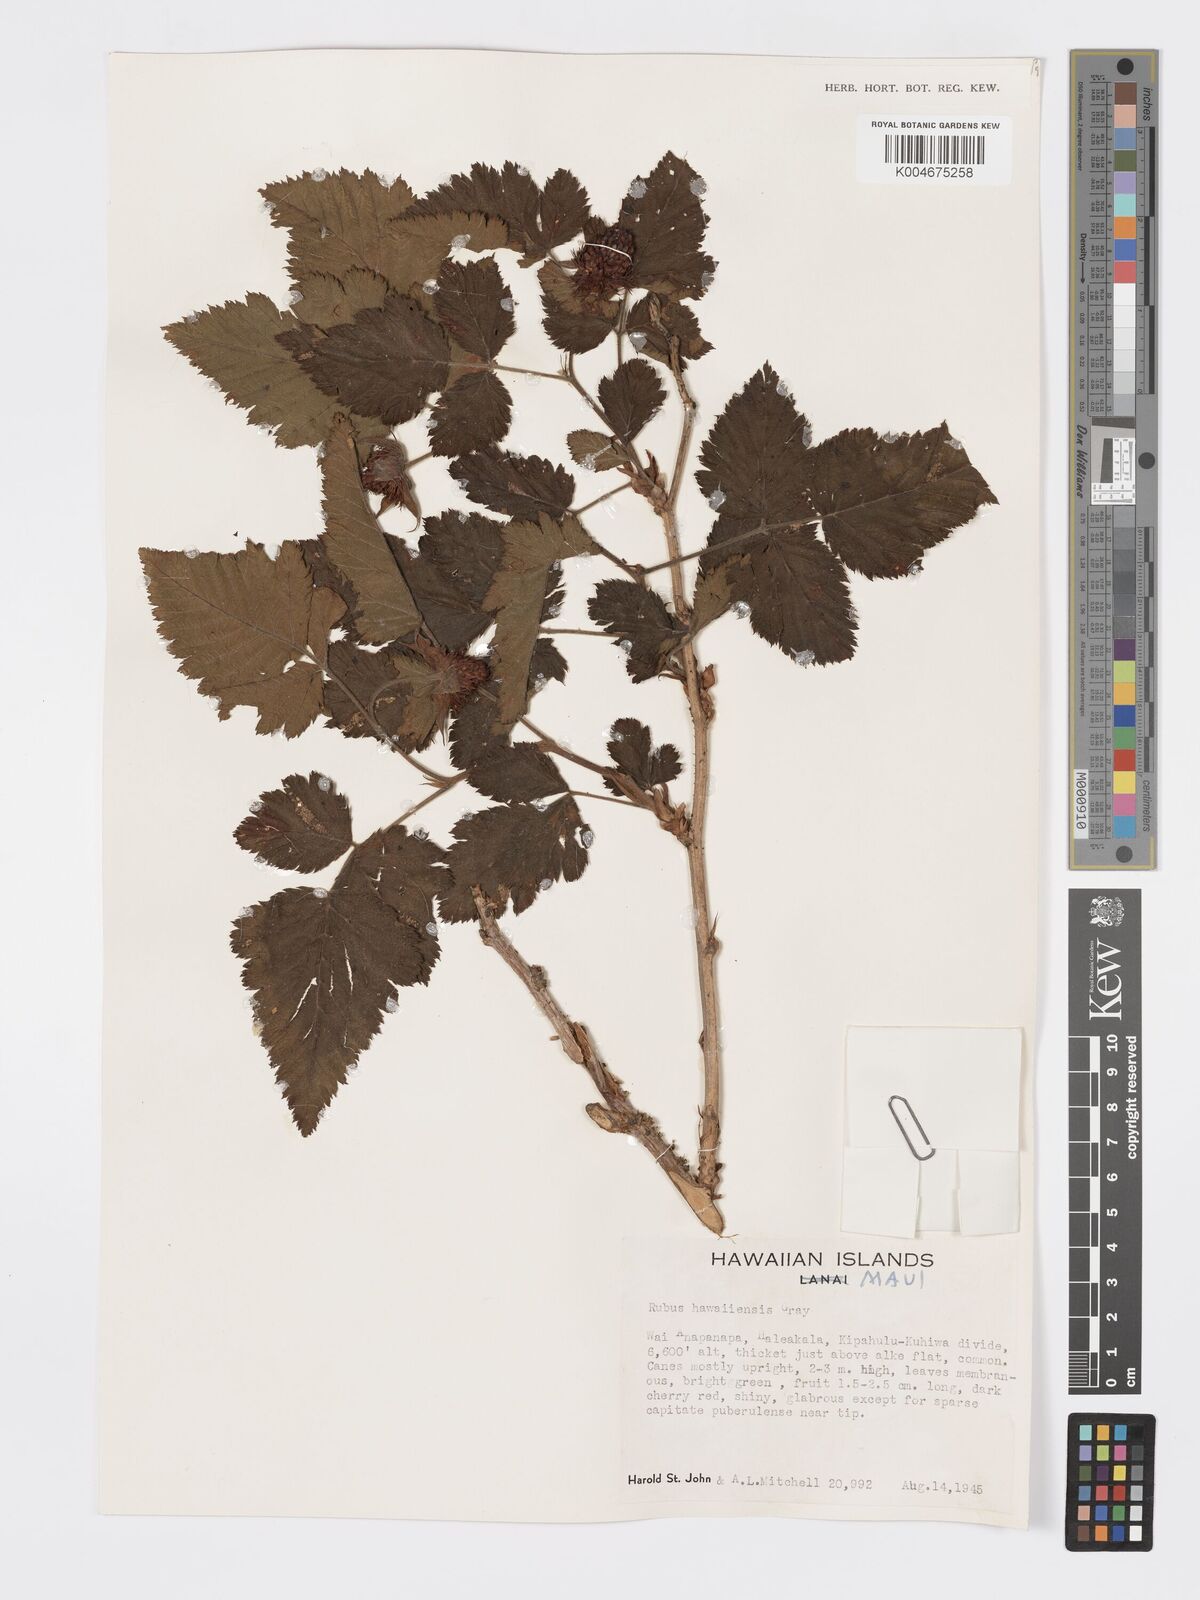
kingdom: Plantae
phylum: Tracheophyta
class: Magnoliopsida
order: Rosales
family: Rosaceae
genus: Rubus
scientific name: Rubus hawaiensis
